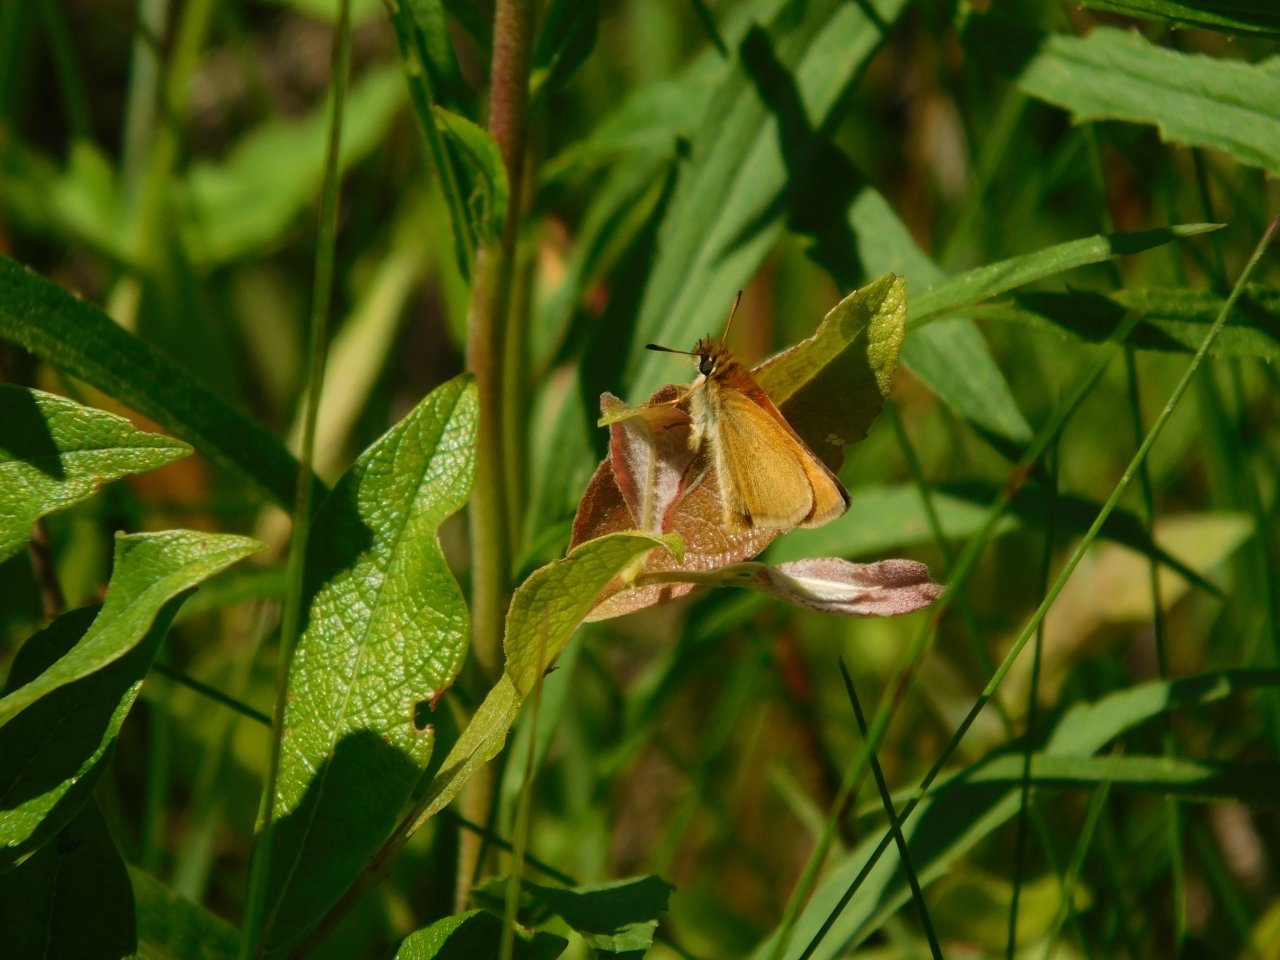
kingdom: Animalia
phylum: Arthropoda
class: Insecta
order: Lepidoptera
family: Hesperiidae
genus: Thymelicus
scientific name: Thymelicus lineola
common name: European Skipper
